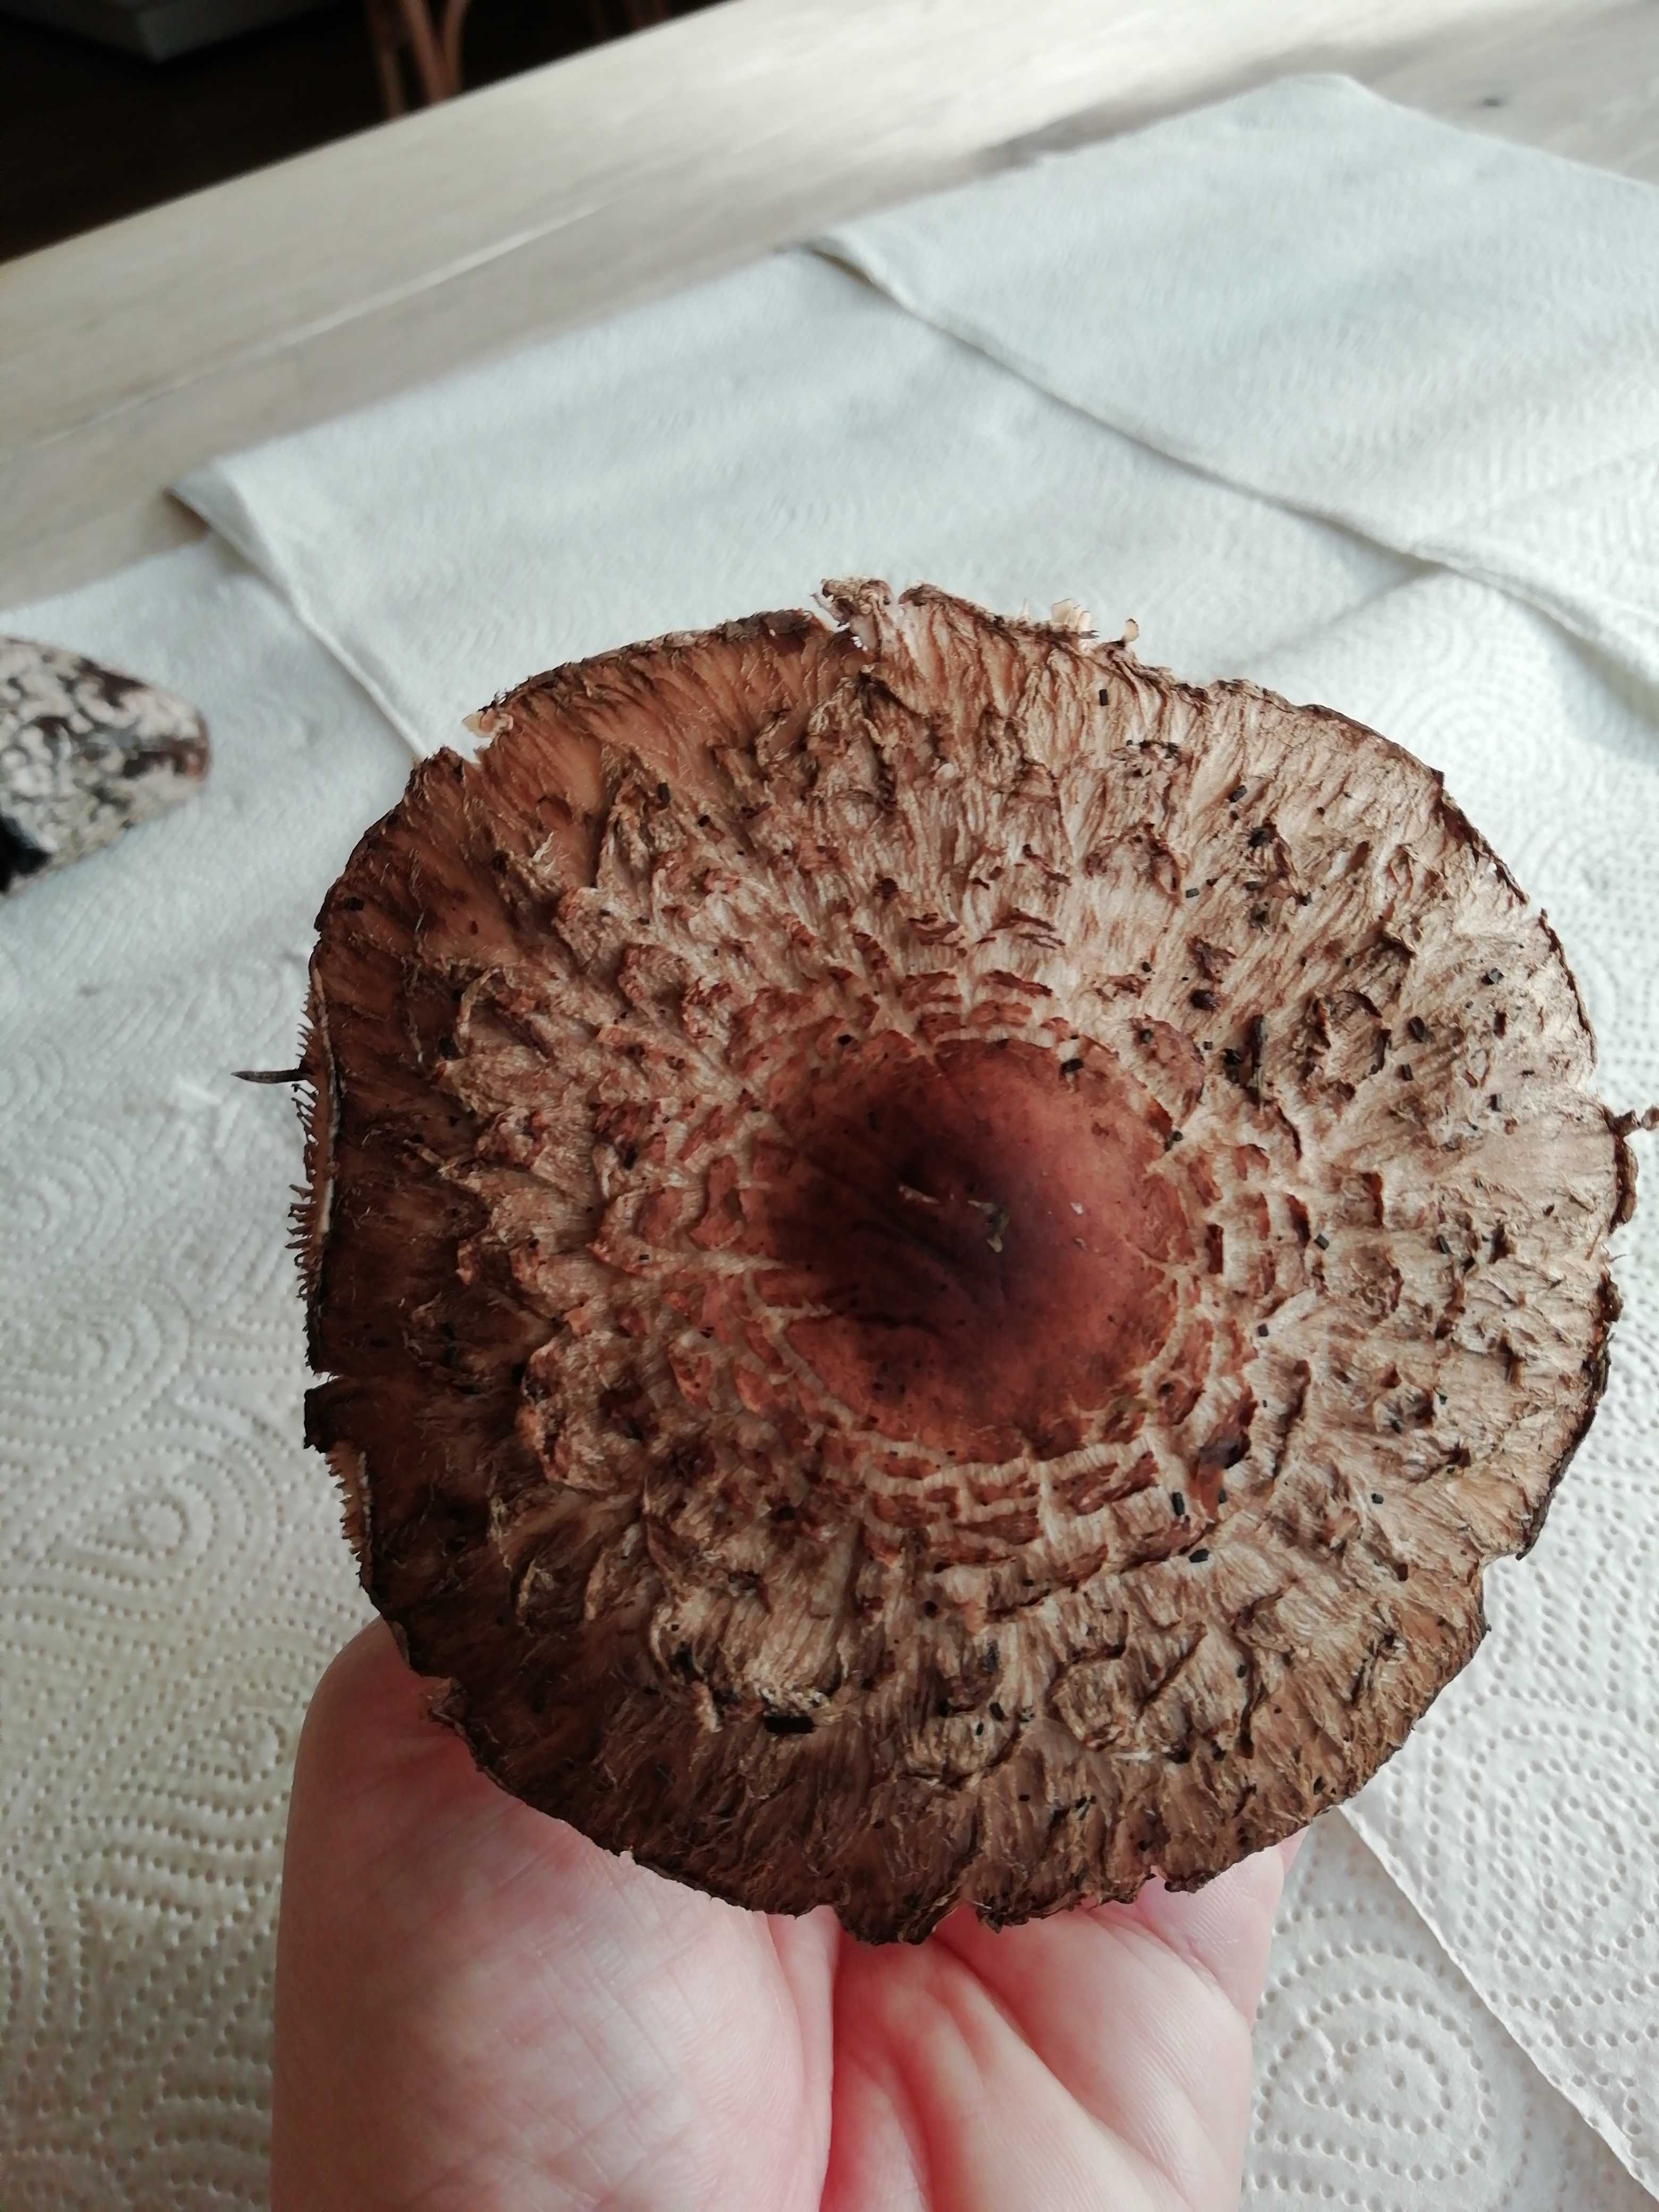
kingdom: Fungi
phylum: Basidiomycota
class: Agaricomycetes
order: Agaricales
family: Agaricaceae
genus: Chlorophyllum
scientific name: Chlorophyllum
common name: rabarberhat
